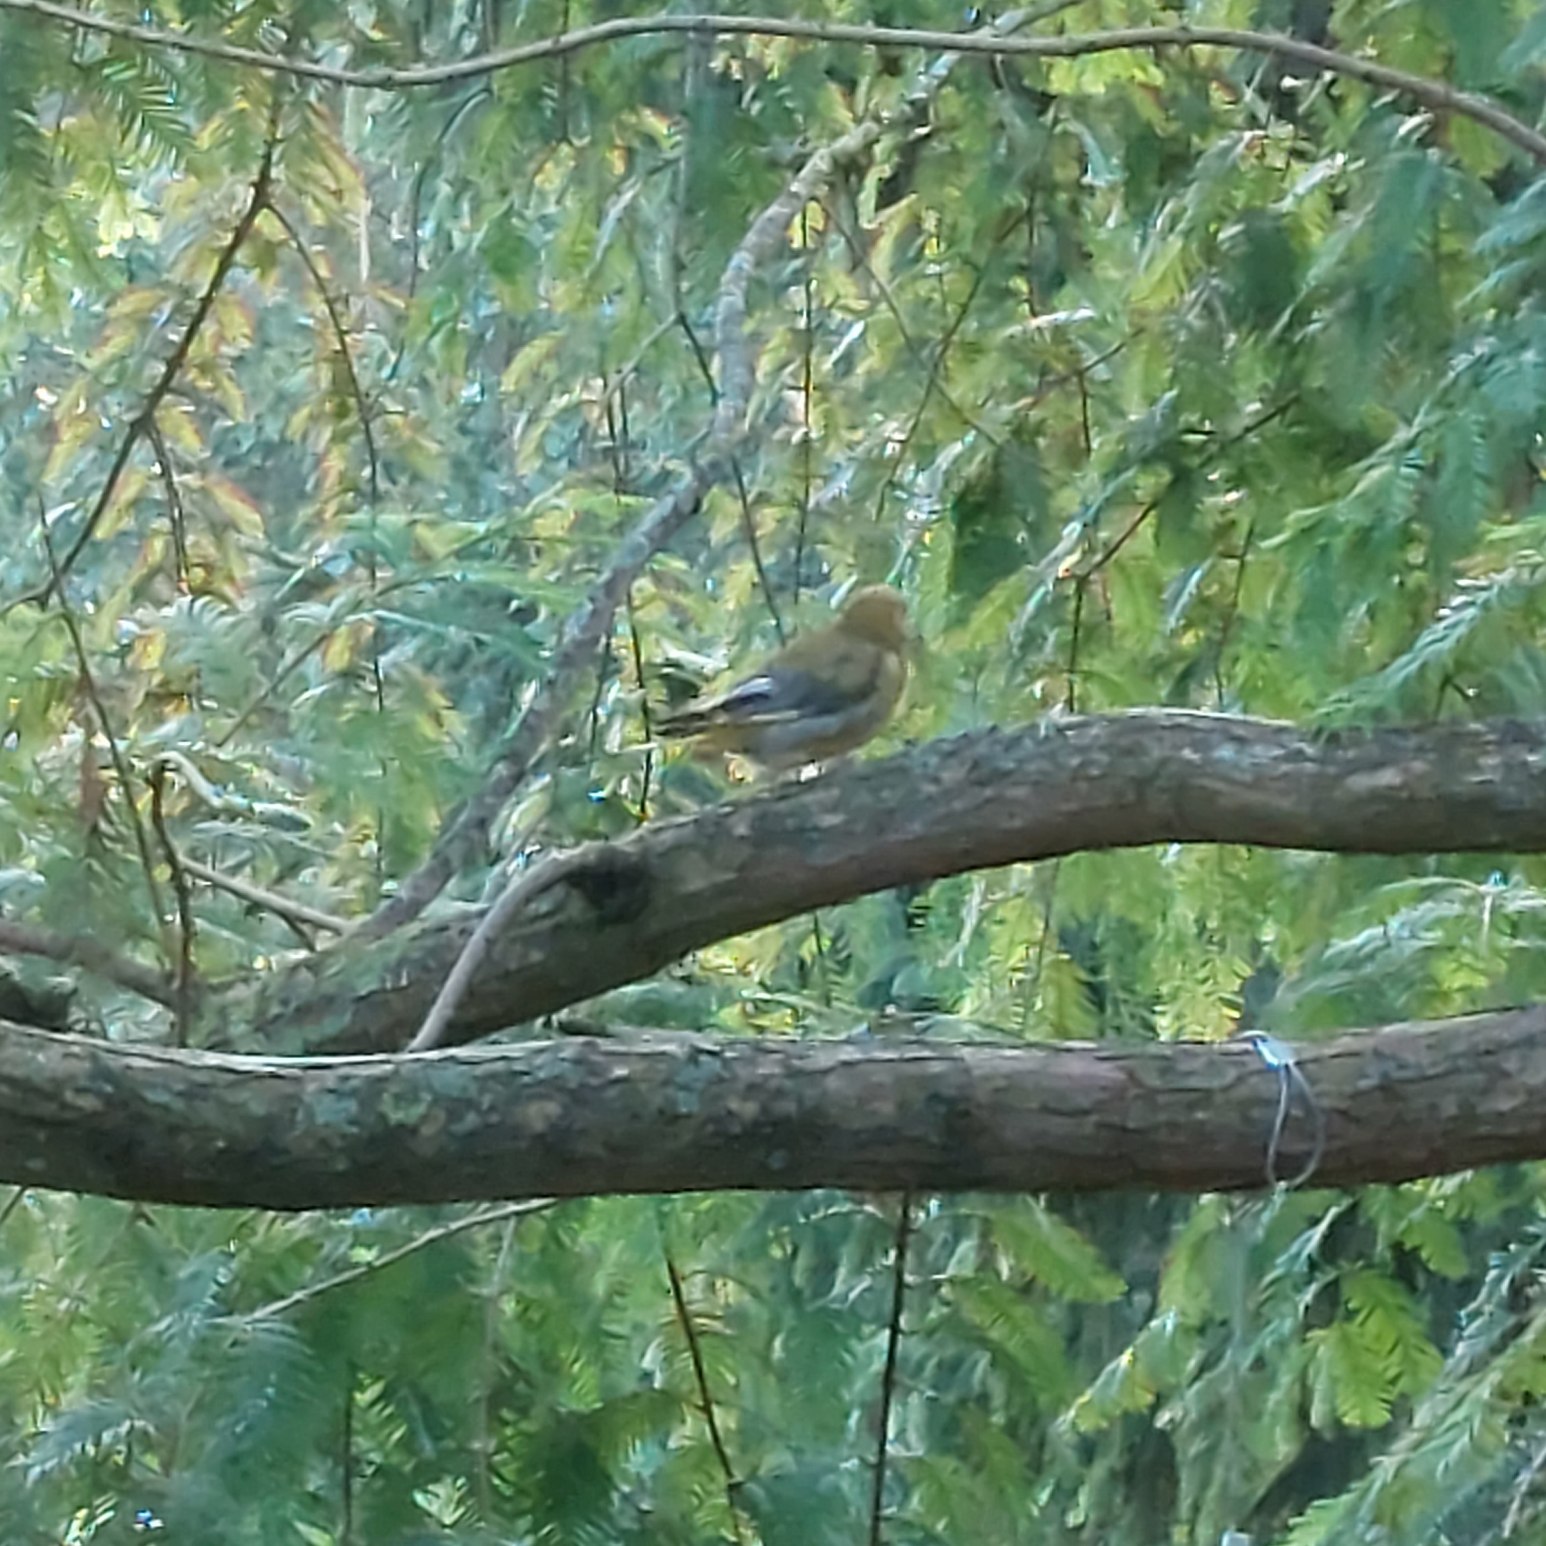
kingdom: Plantae
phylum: Tracheophyta
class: Liliopsida
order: Poales
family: Poaceae
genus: Chloris
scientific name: Chloris chloris
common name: Grønirisk
